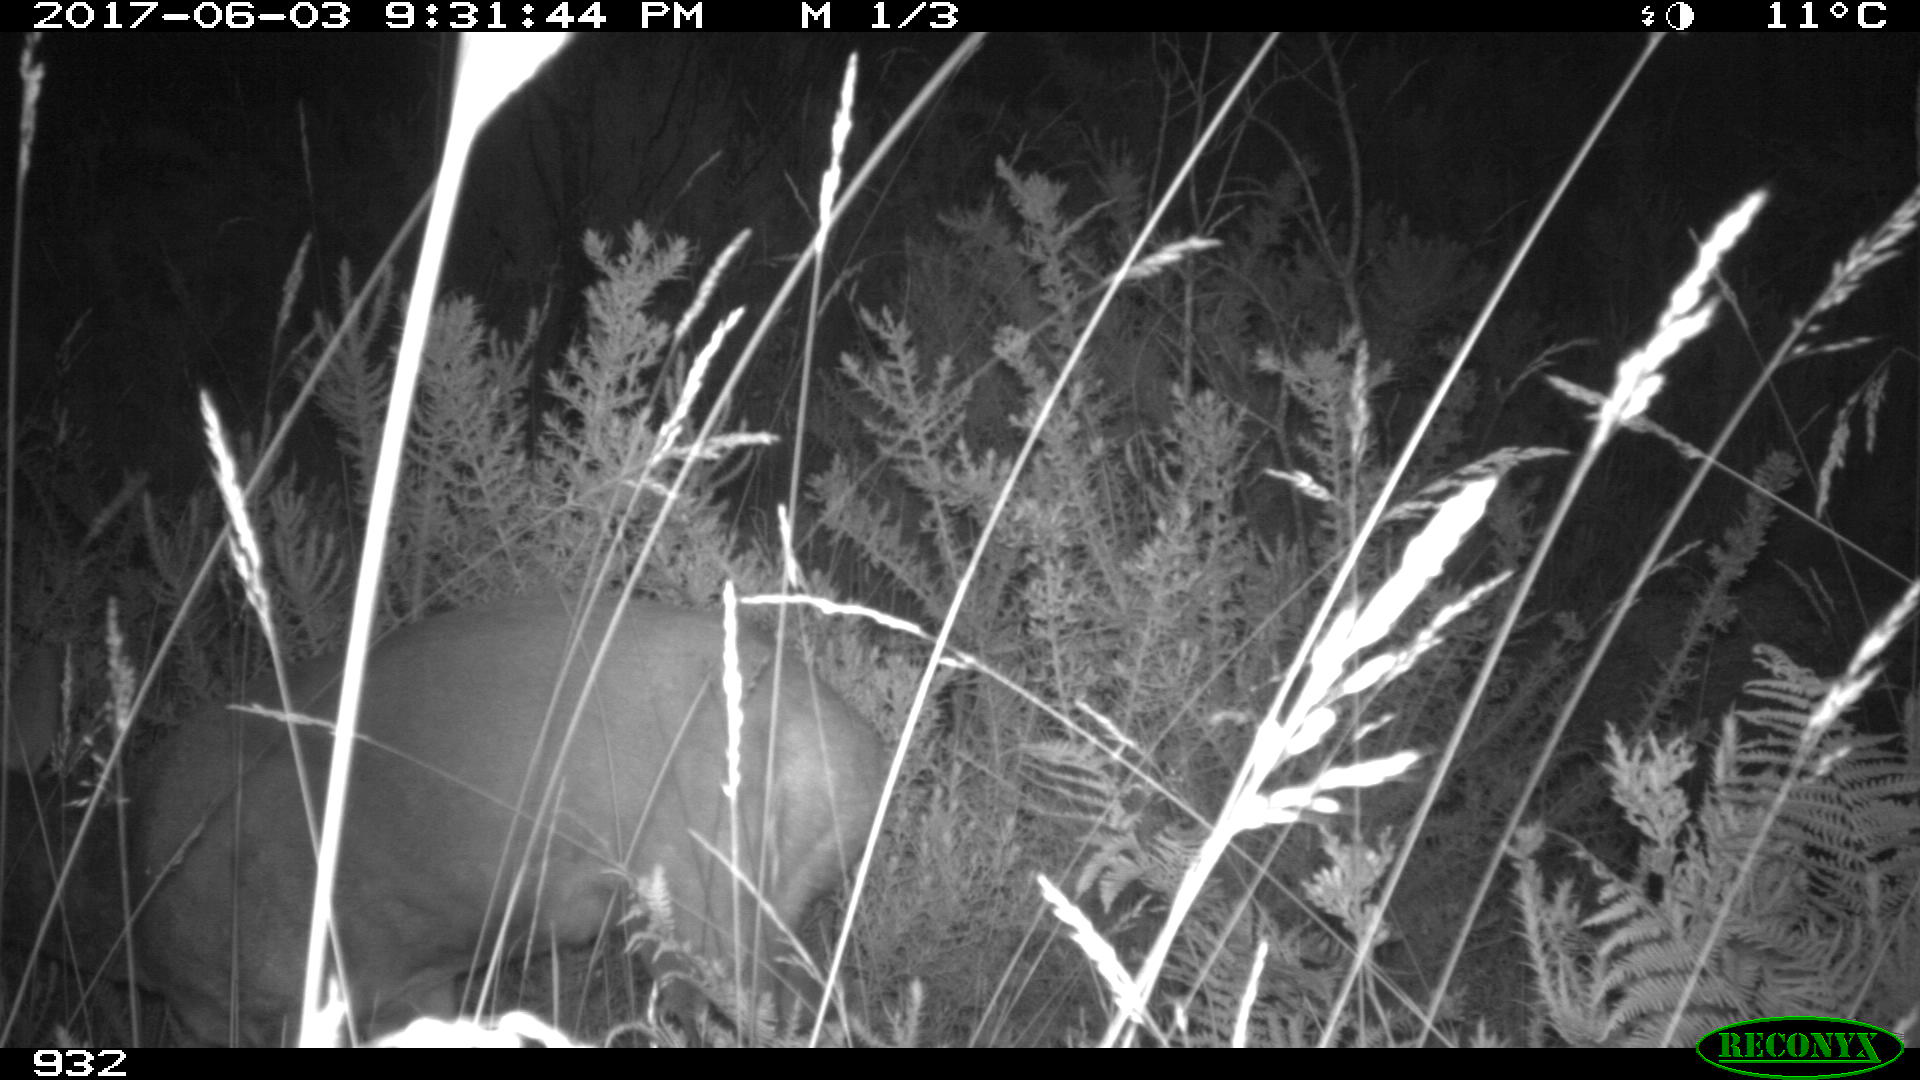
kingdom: Animalia
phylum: Chordata
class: Mammalia
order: Artiodactyla
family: Cervidae
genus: Capreolus
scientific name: Capreolus capreolus
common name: Western roe deer
